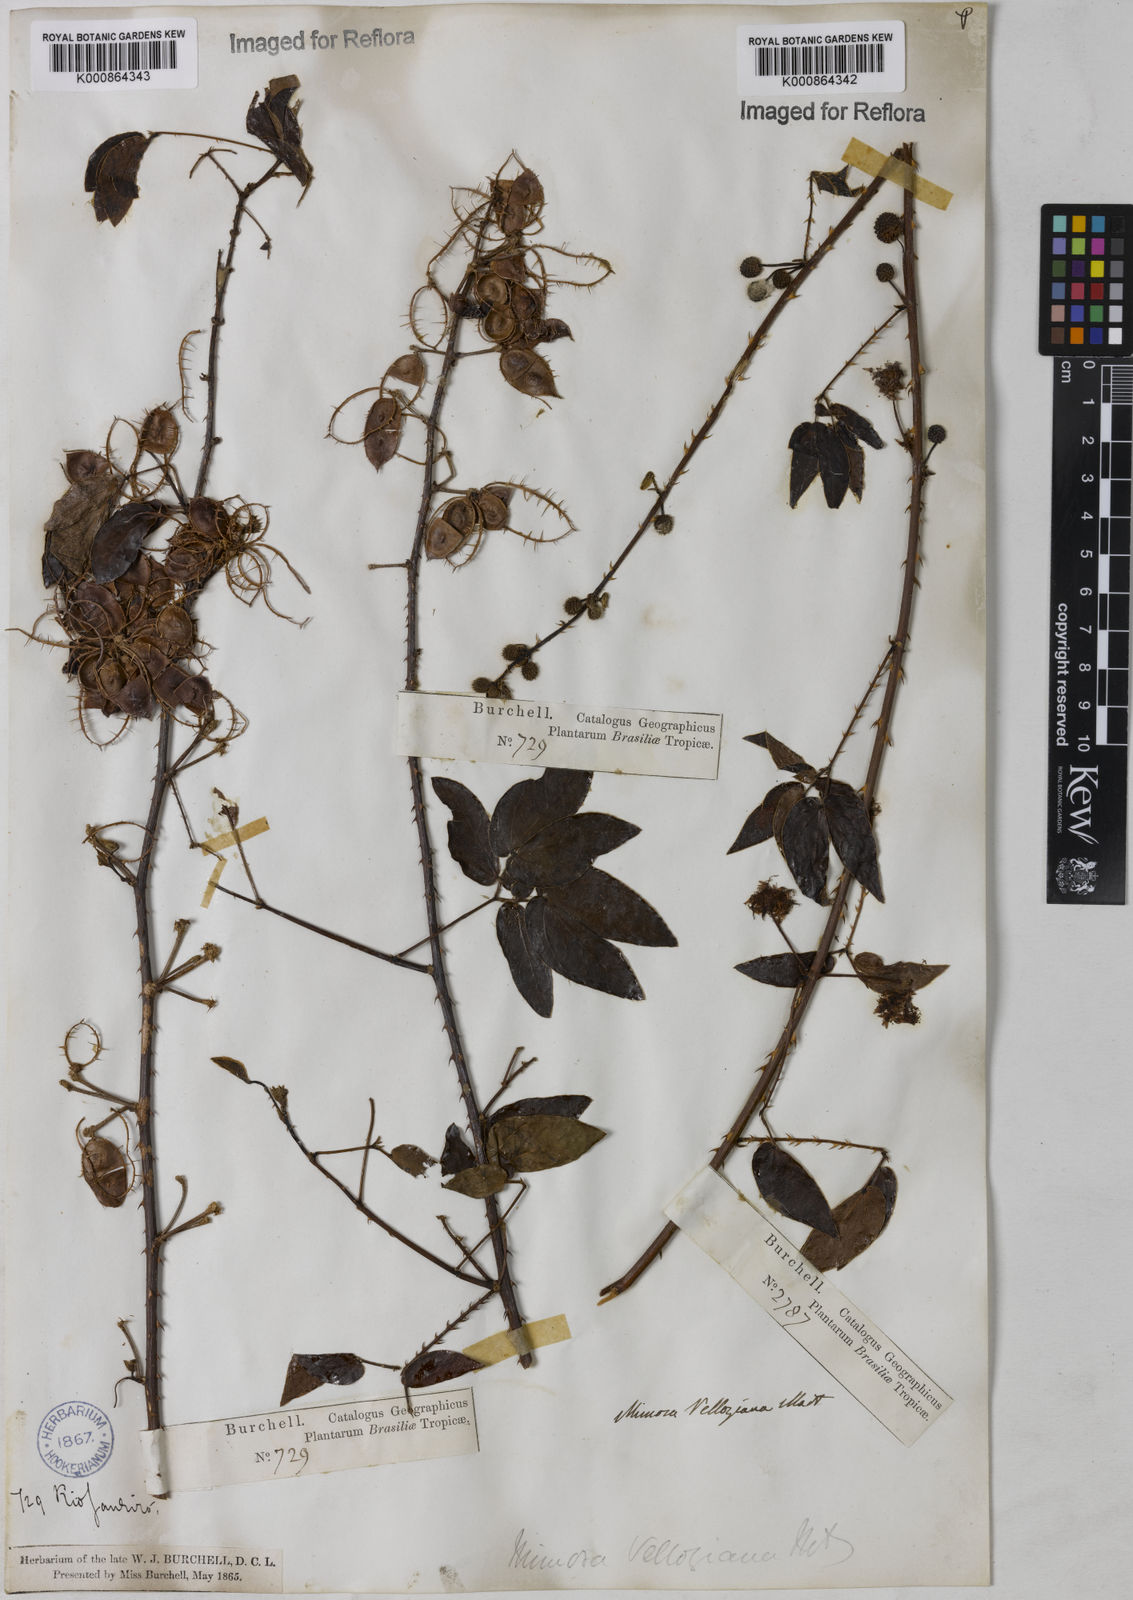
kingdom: Plantae
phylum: Tracheophyta
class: Magnoliopsida
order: Fabales
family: Fabaceae
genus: Mimosa
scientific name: Mimosa velloziana
